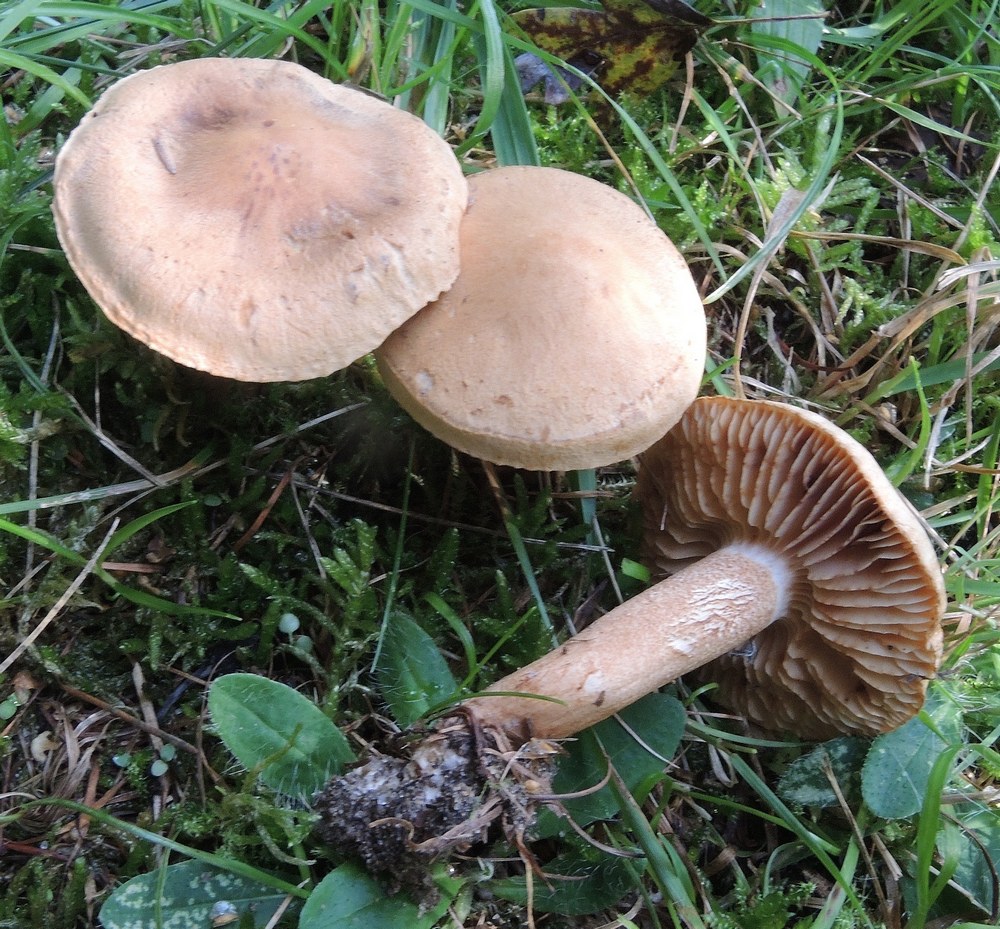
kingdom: Fungi
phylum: Basidiomycota
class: Agaricomycetes
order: Agaricales
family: Tricholomataceae
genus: Tricholoma
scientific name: Tricholoma psammopus
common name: grynstokket ridderhat
